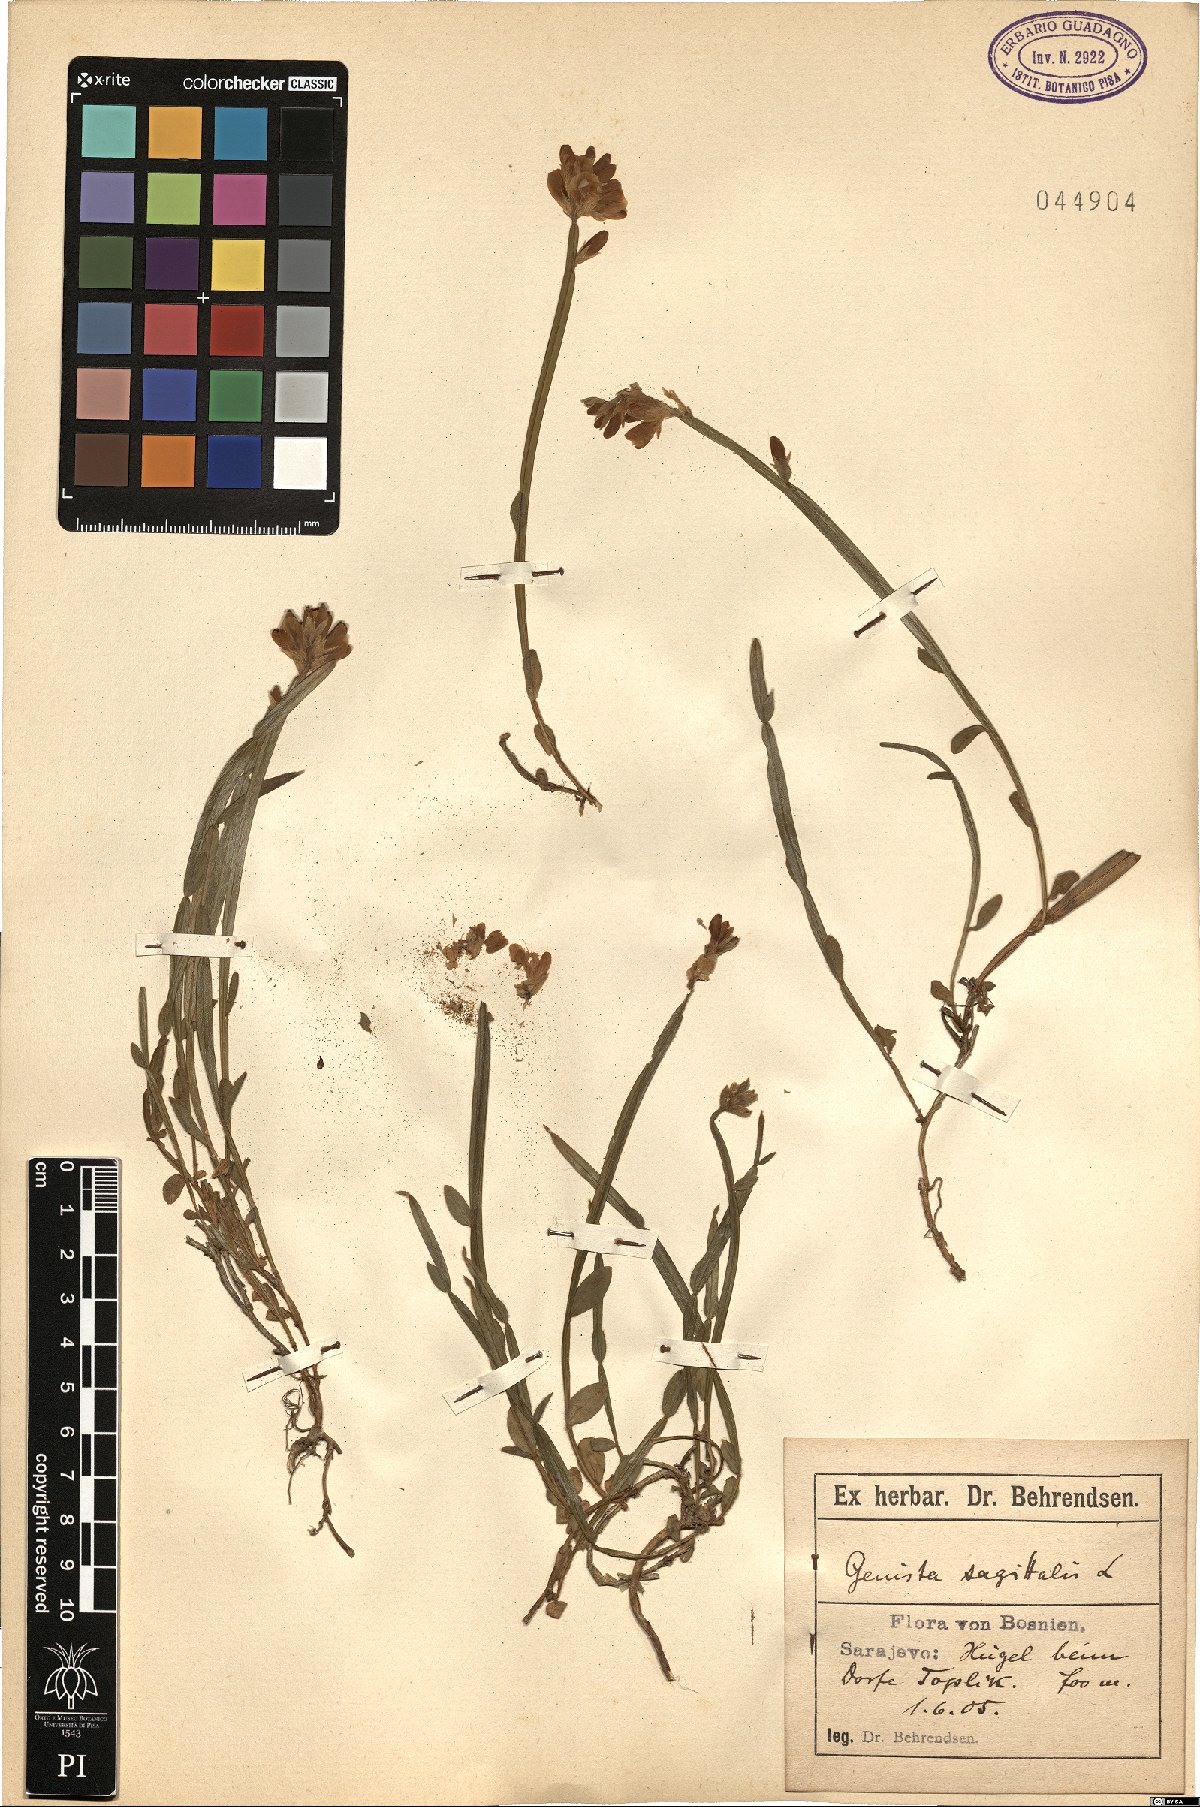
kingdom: Plantae
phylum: Tracheophyta
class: Magnoliopsida
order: Fabales
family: Fabaceae
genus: Genista
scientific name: Genista sagittalis
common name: Winged greenweed
